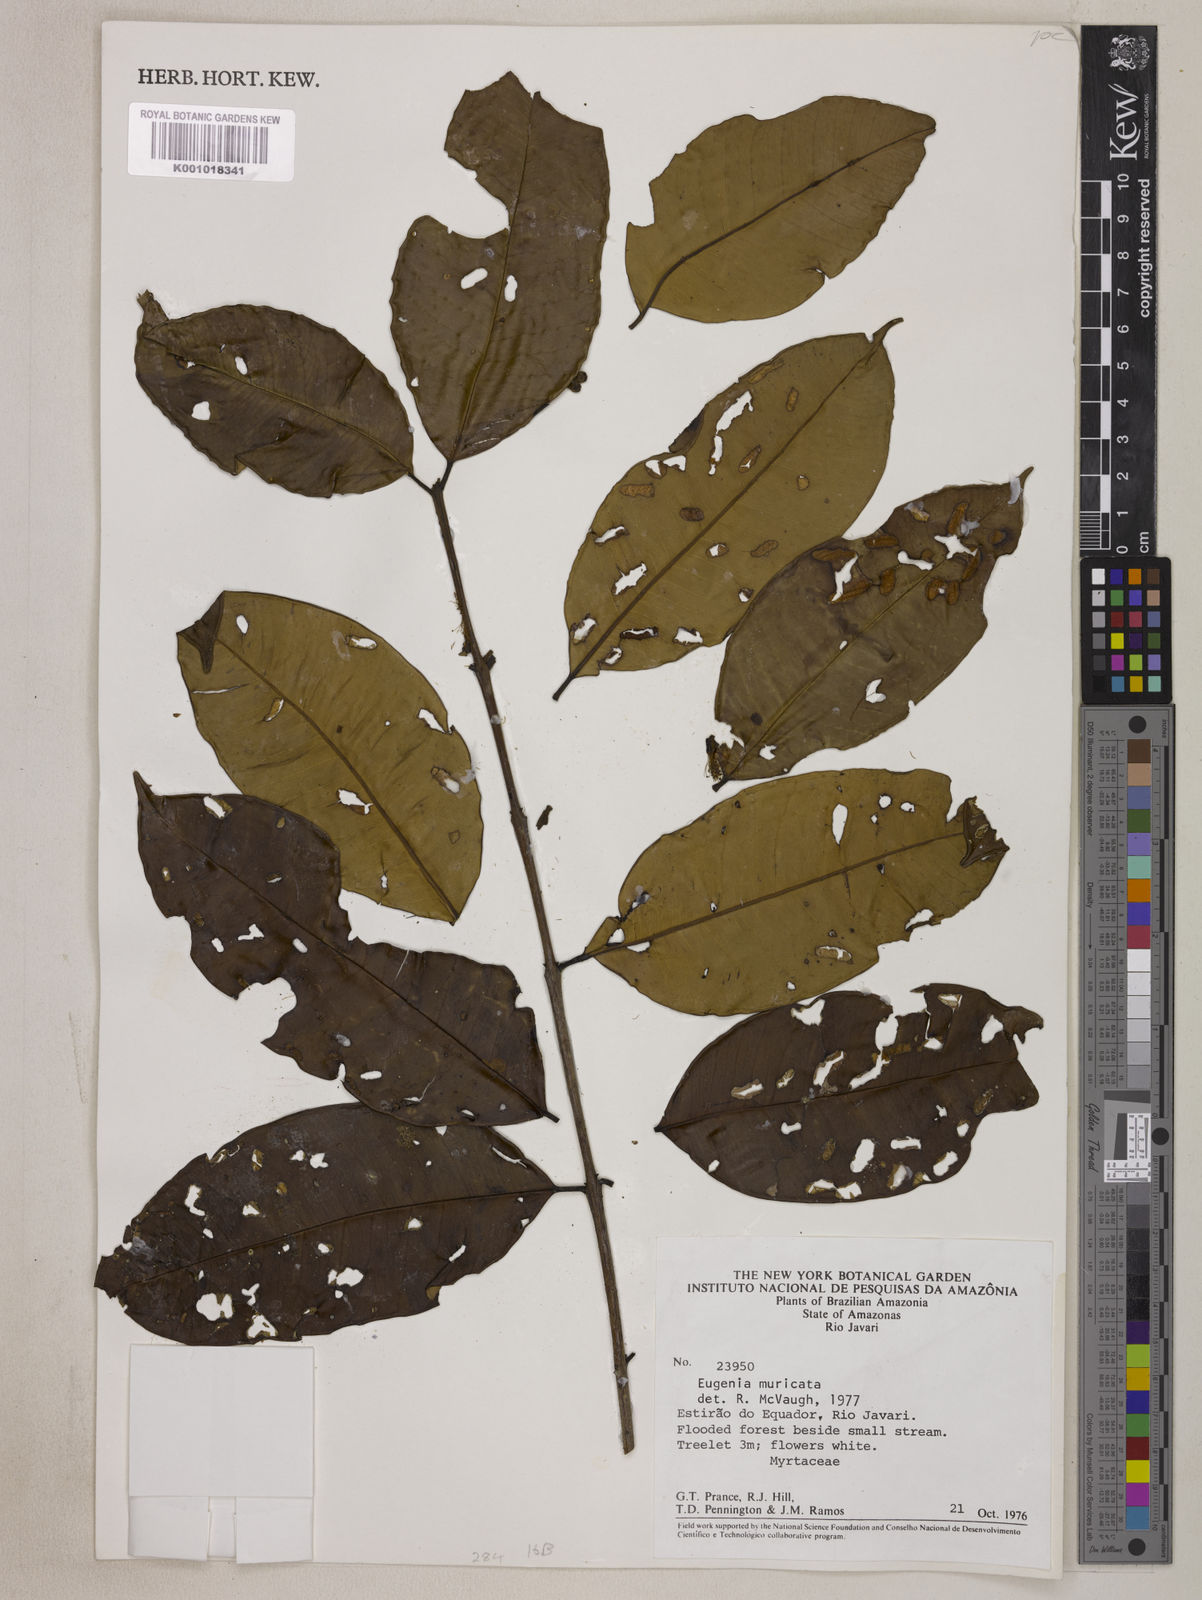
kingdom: Plantae
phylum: Tracheophyta
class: Magnoliopsida
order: Myrtales
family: Myrtaceae
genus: Eugenia
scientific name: Eugenia muricata
